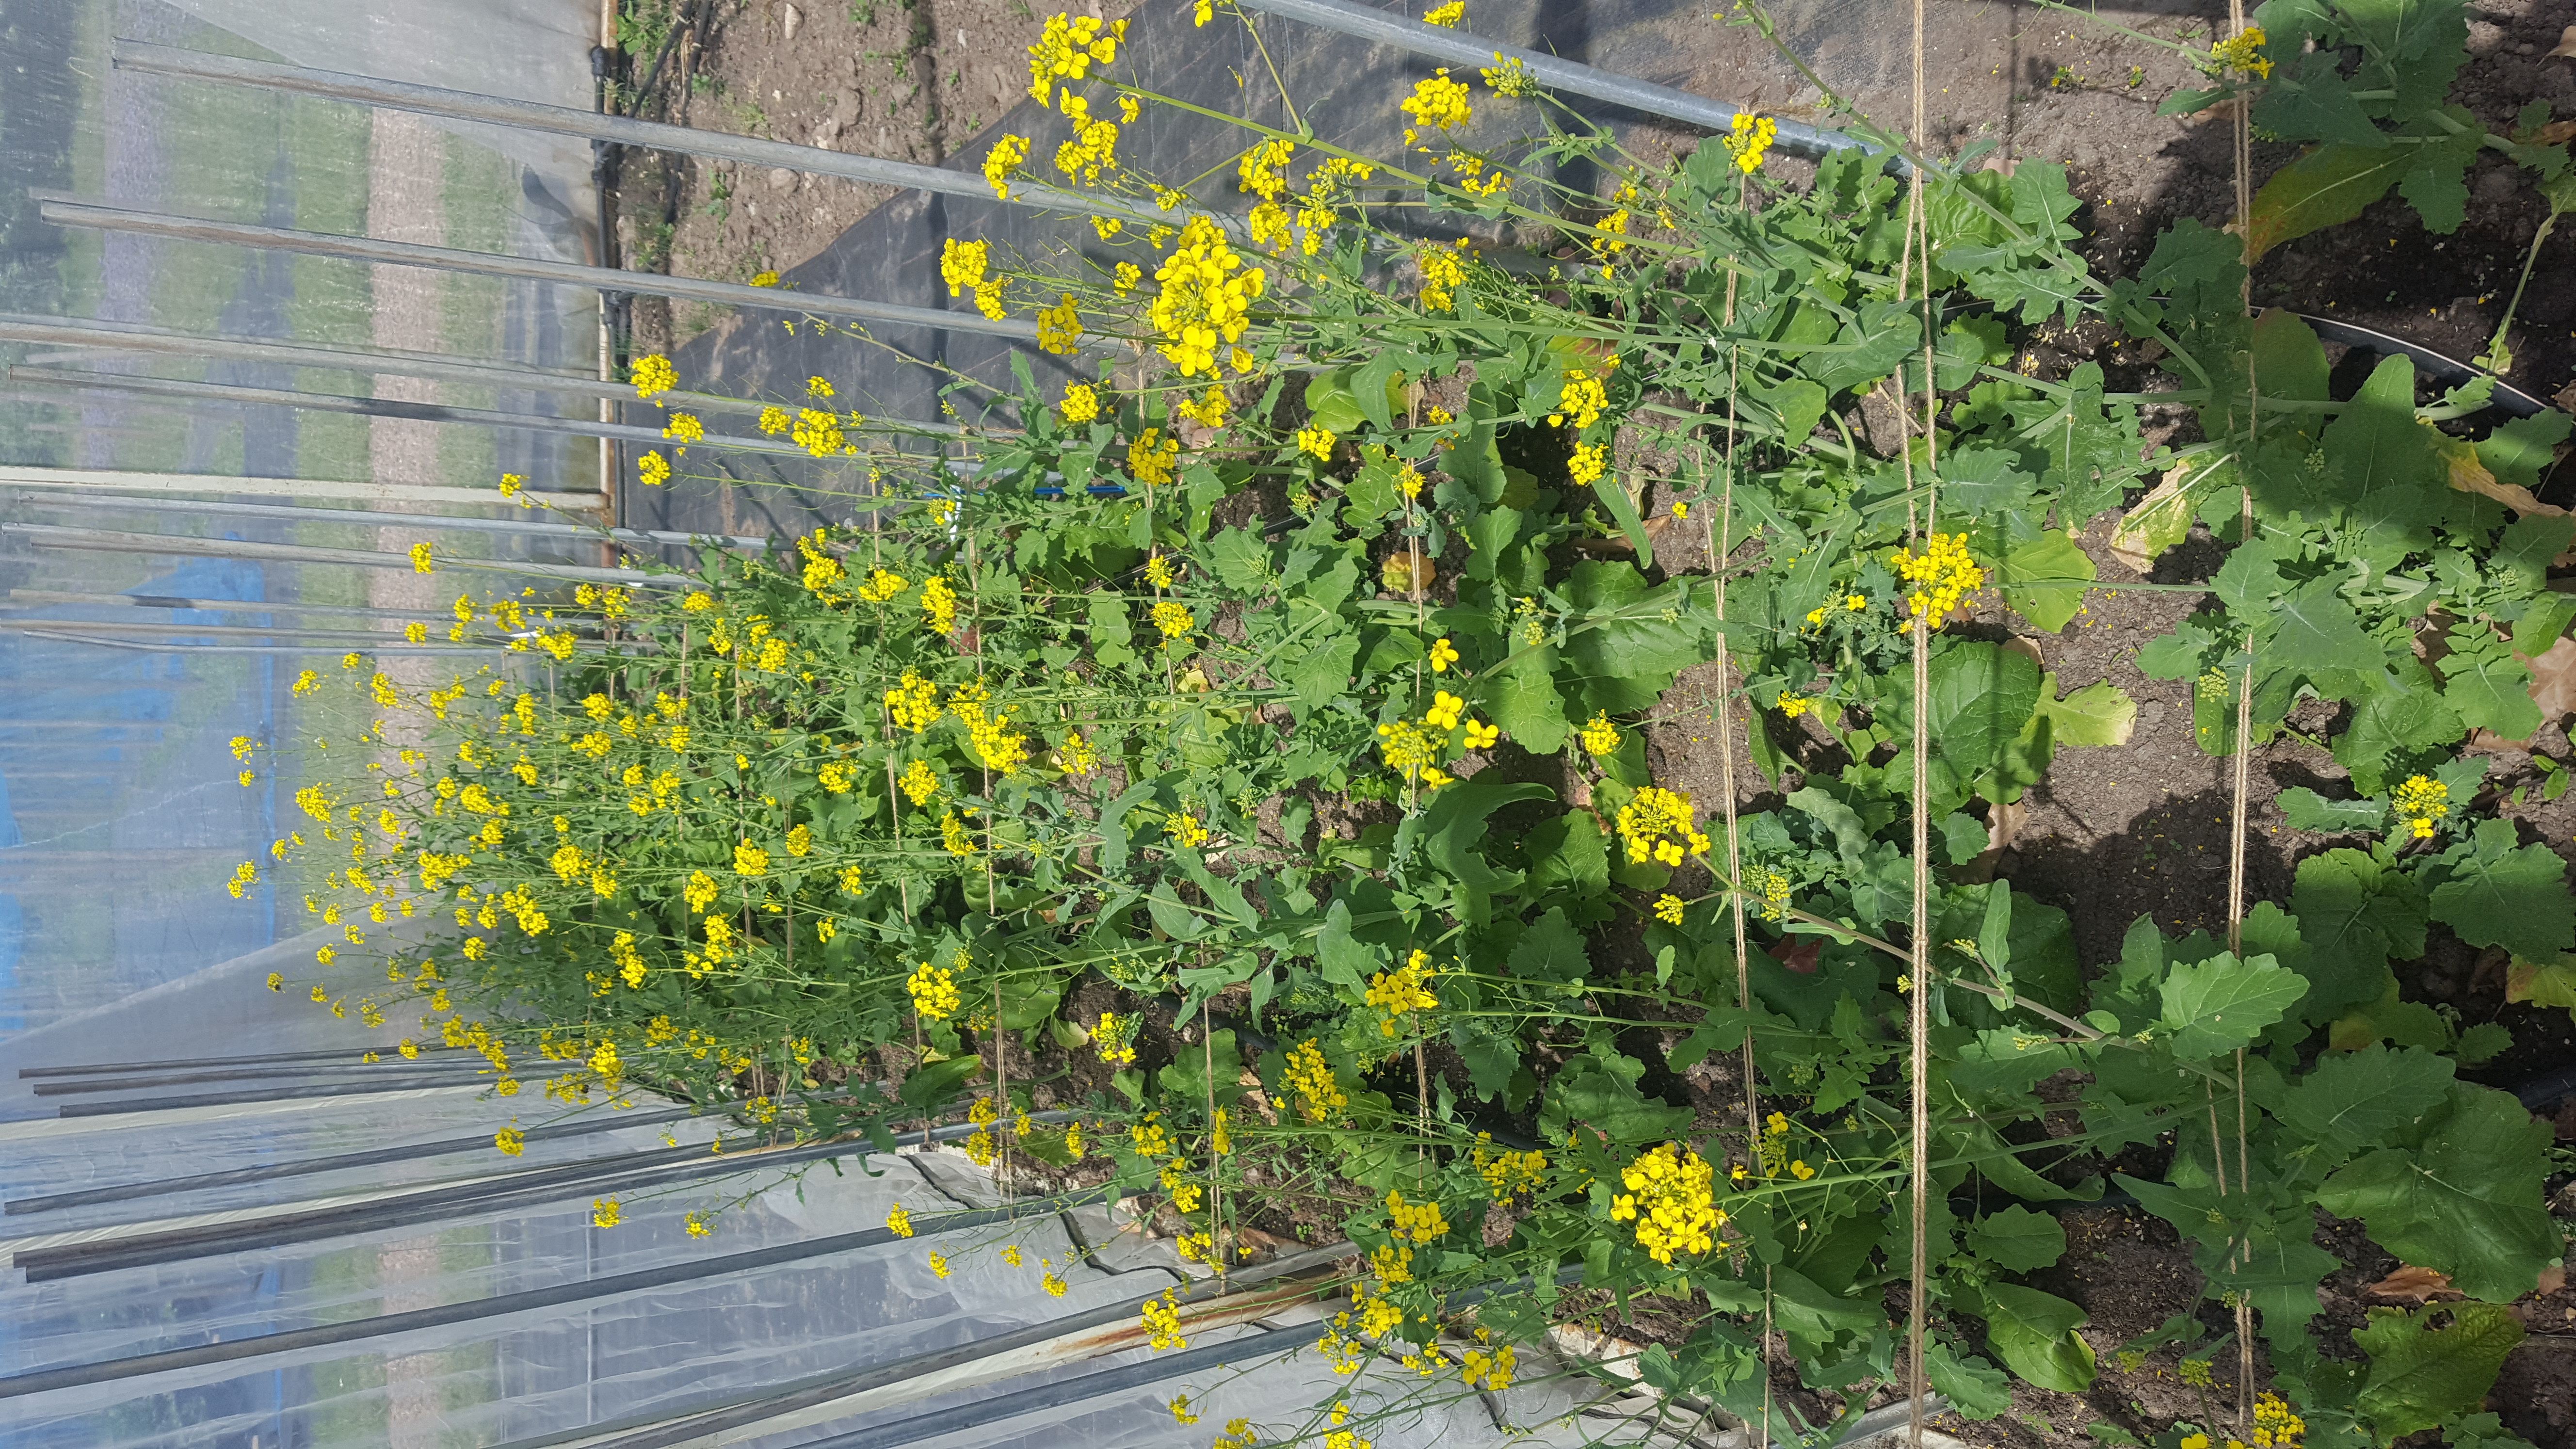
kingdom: Plantae
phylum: Tracheophyta
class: Magnoliopsida
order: Brassicales
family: Brassicaceae
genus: Brassica
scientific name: Brassica rapa
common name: Field mustard
